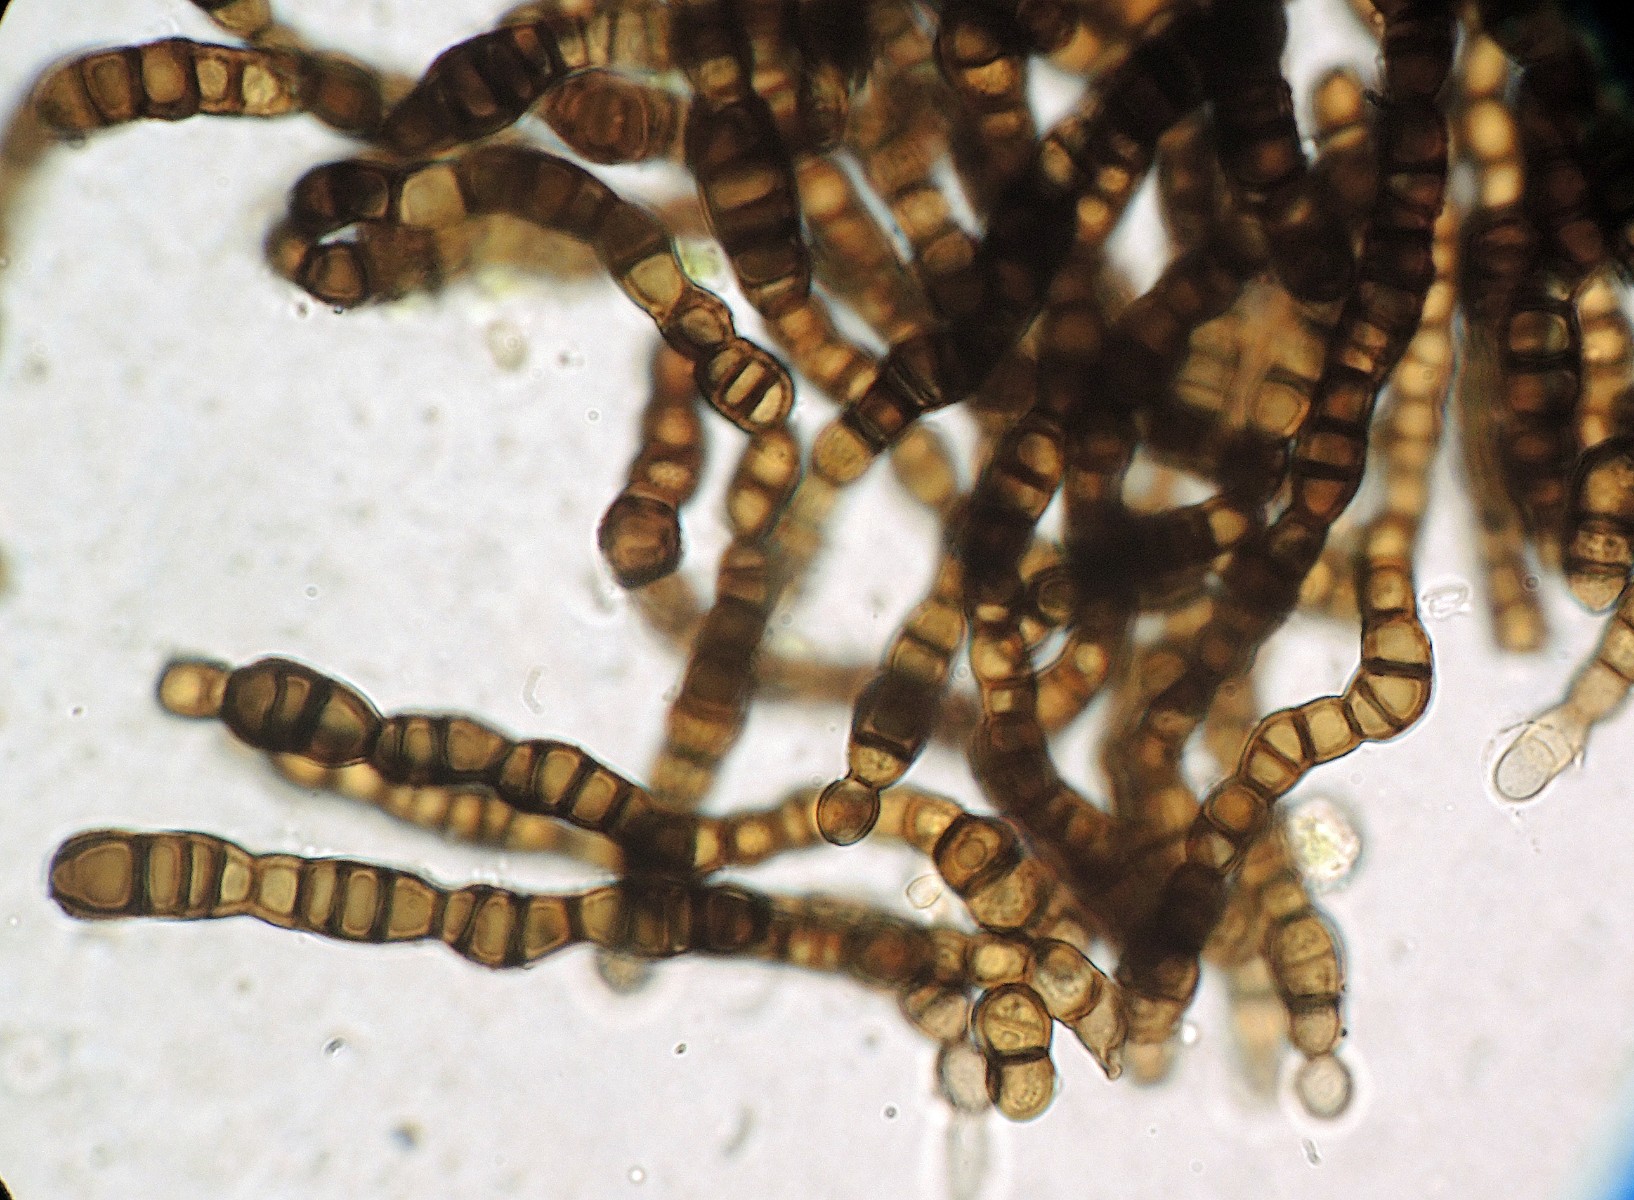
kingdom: Fungi
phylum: Ascomycota
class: Dothideomycetes
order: Mytilinidiales
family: Mytilinidiaceae
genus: Taeniolella
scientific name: Taeniolella faginea
